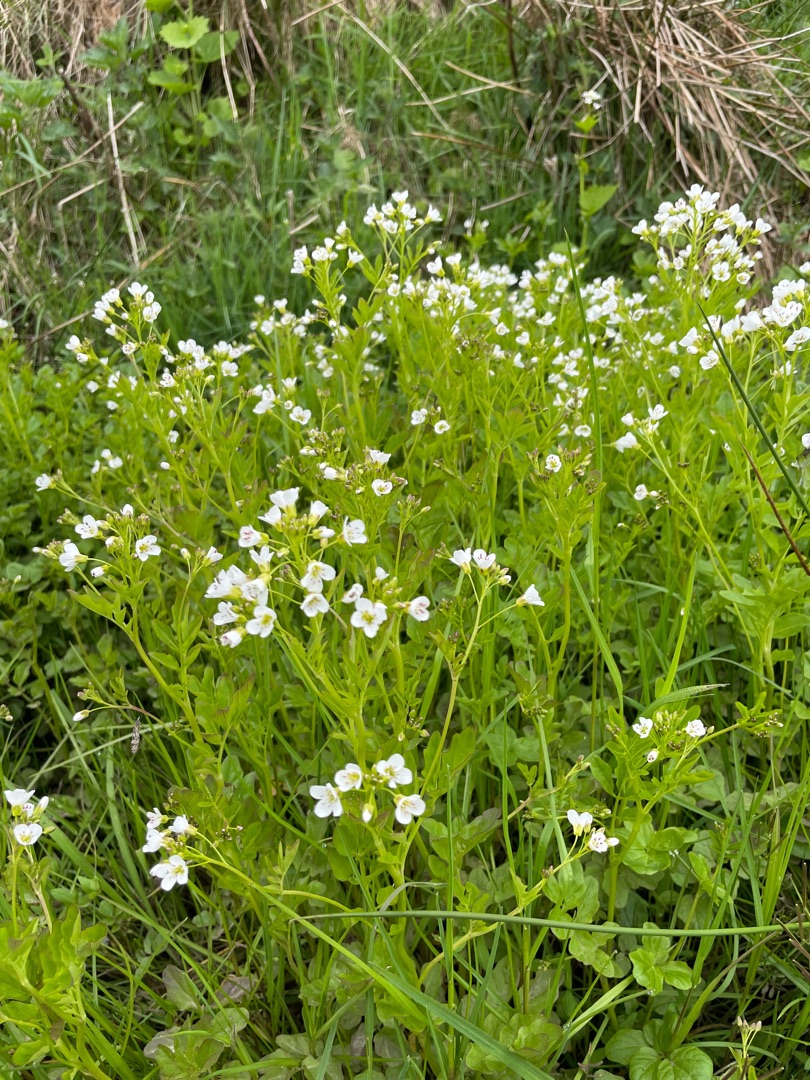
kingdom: Plantae
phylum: Tracheophyta
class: Magnoliopsida
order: Brassicales
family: Brassicaceae
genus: Cardamine
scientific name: Cardamine amara
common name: Vandkarse
